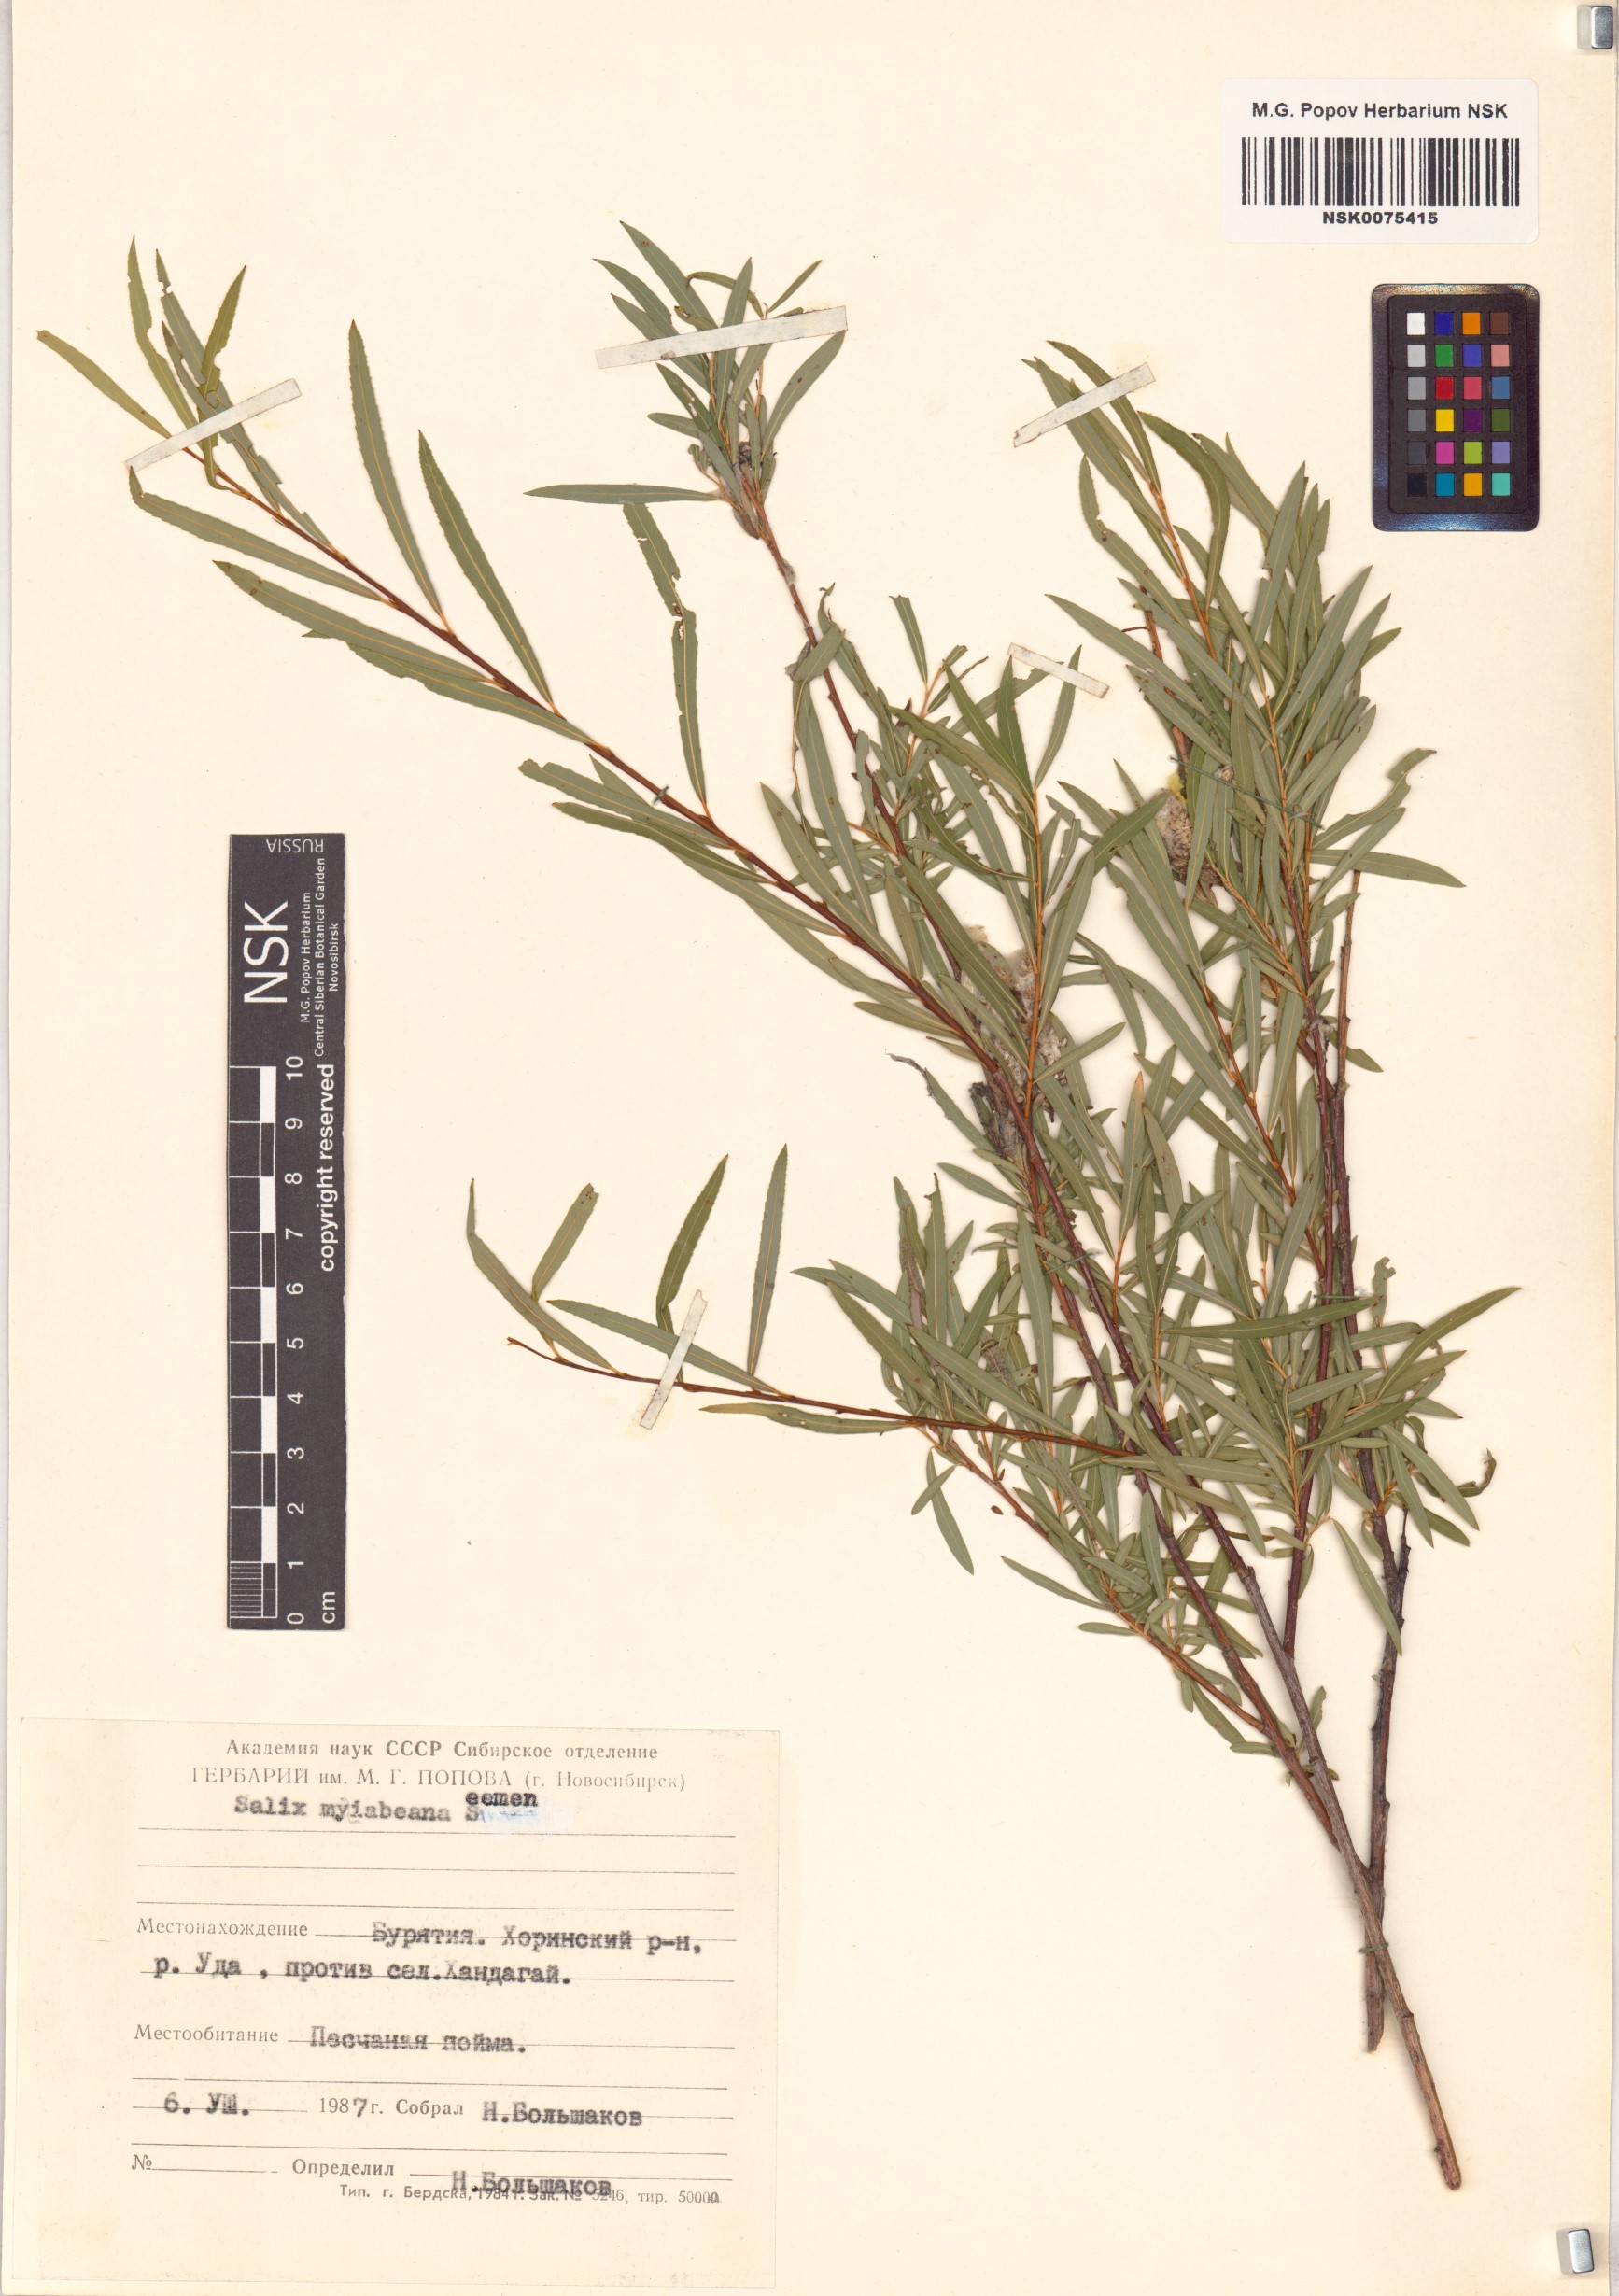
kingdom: Plantae
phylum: Tracheophyta
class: Magnoliopsida
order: Malpighiales
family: Salicaceae
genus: Salix
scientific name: Salix miyabeana
